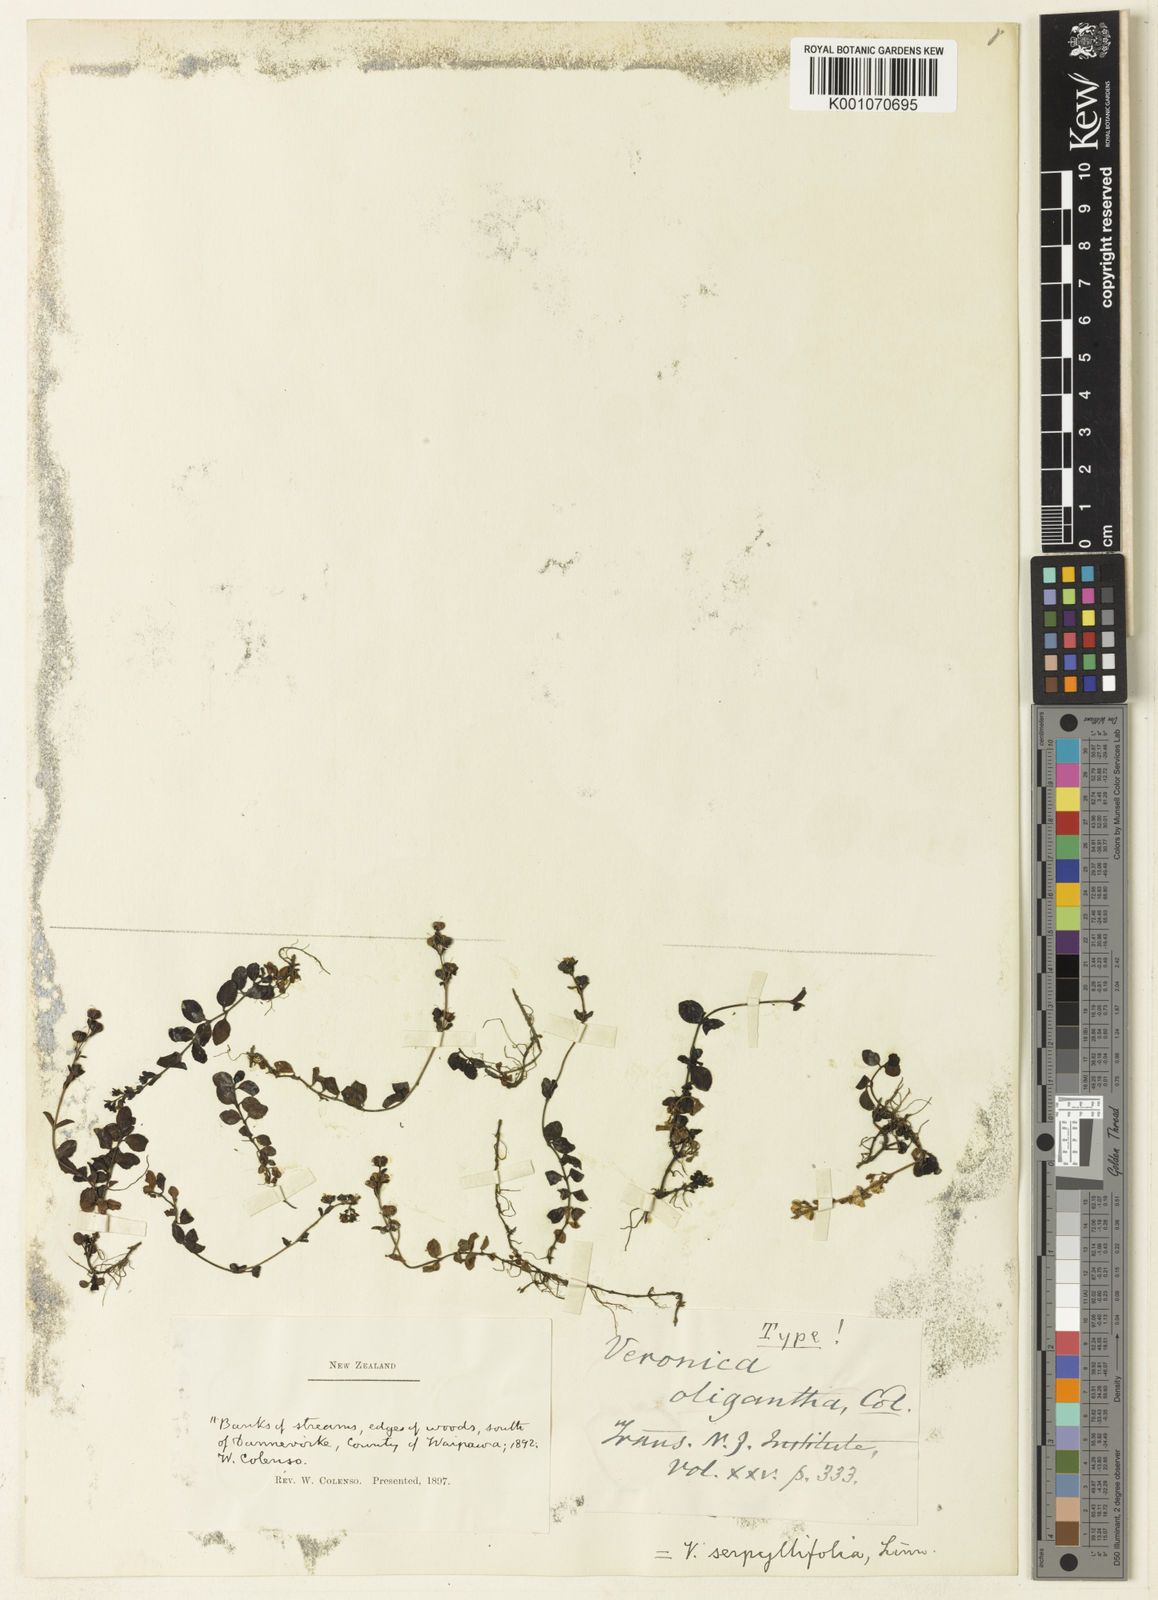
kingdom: Plantae
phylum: Tracheophyta
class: Magnoliopsida
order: Lamiales
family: Plantaginaceae
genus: Veronica
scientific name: Veronica
